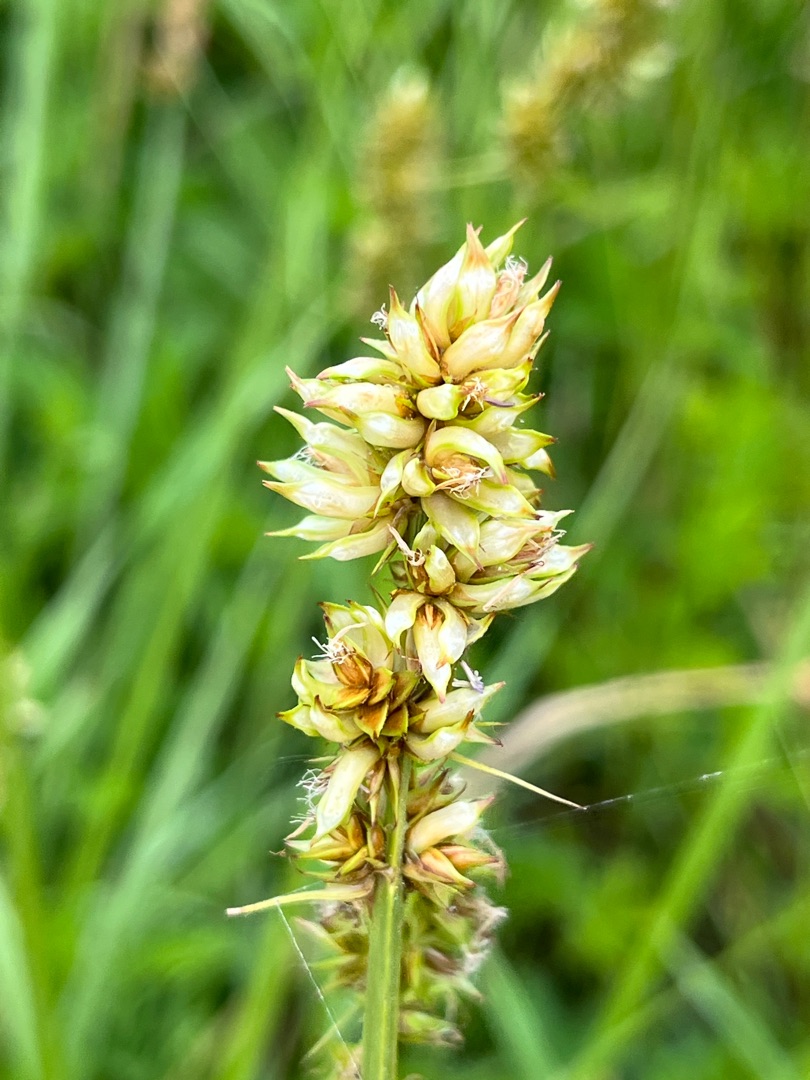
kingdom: Animalia
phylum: Arthropoda
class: Insecta
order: Diptera
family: Cecidomyiidae
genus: Dasineura
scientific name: Dasineura inflata
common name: Syltstargalmyg
